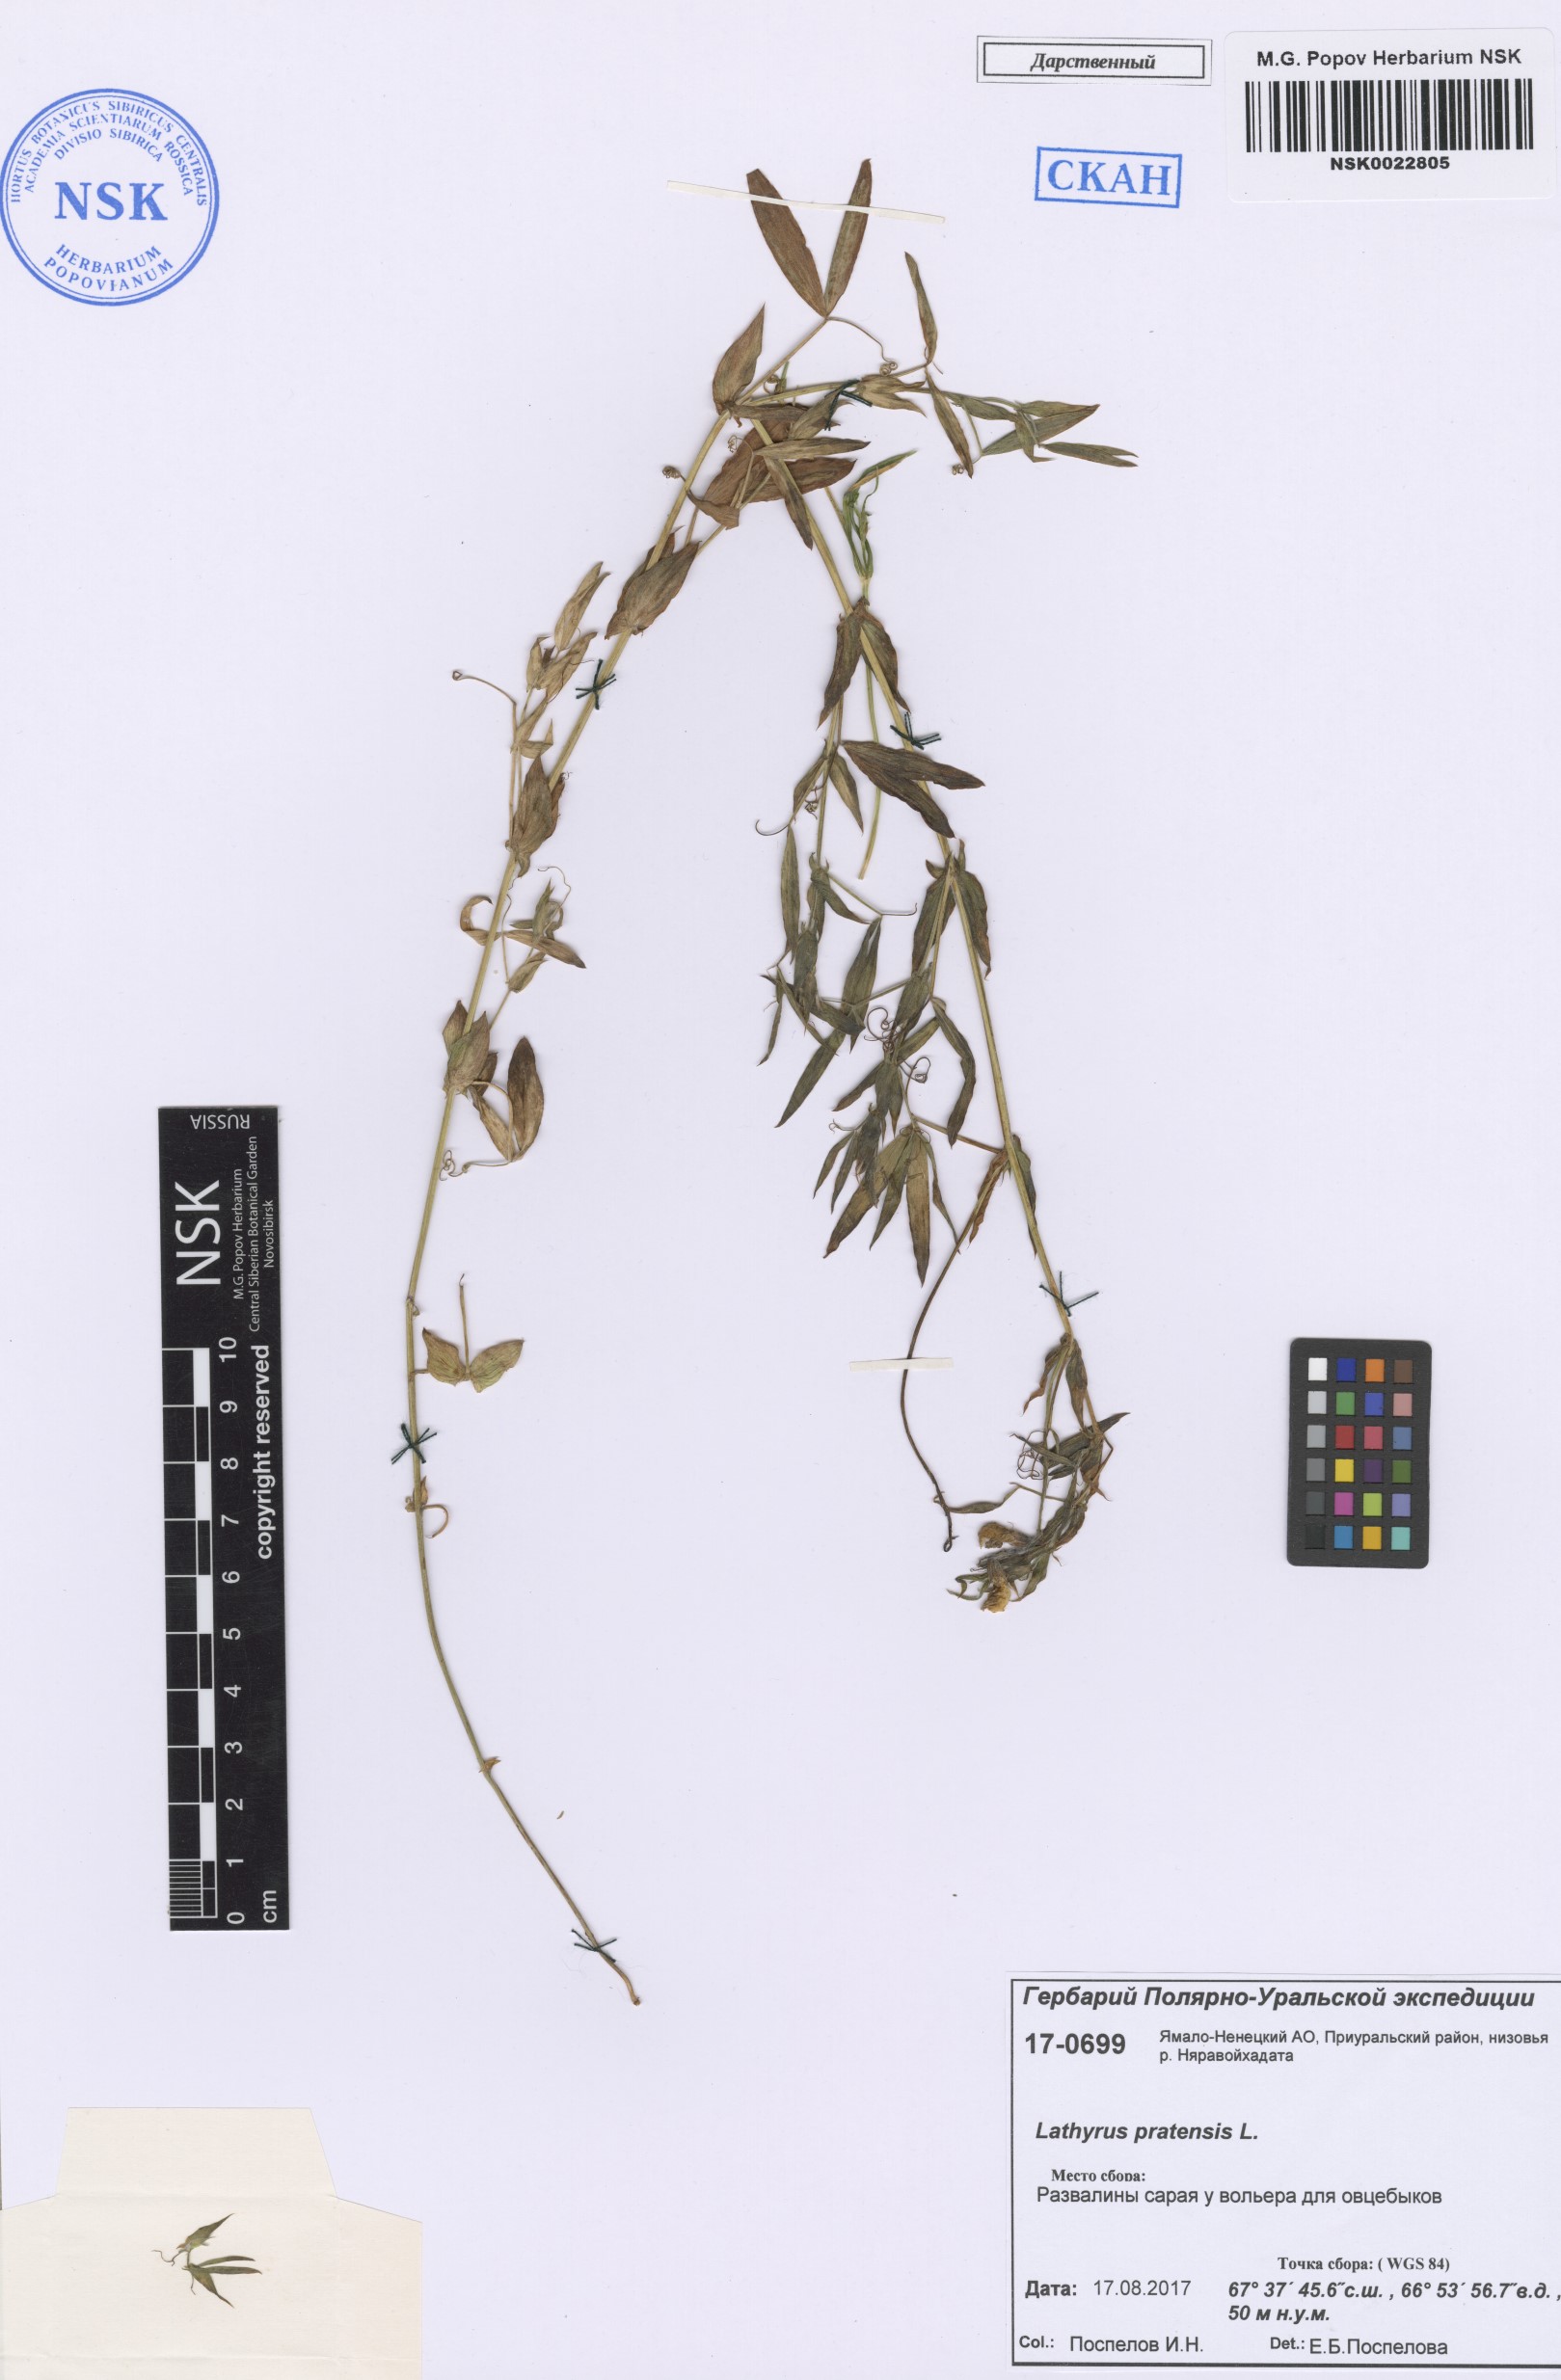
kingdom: Plantae
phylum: Tracheophyta
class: Magnoliopsida
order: Fabales
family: Fabaceae
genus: Lathyrus
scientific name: Lathyrus pratensis
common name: Meadow vetchling
